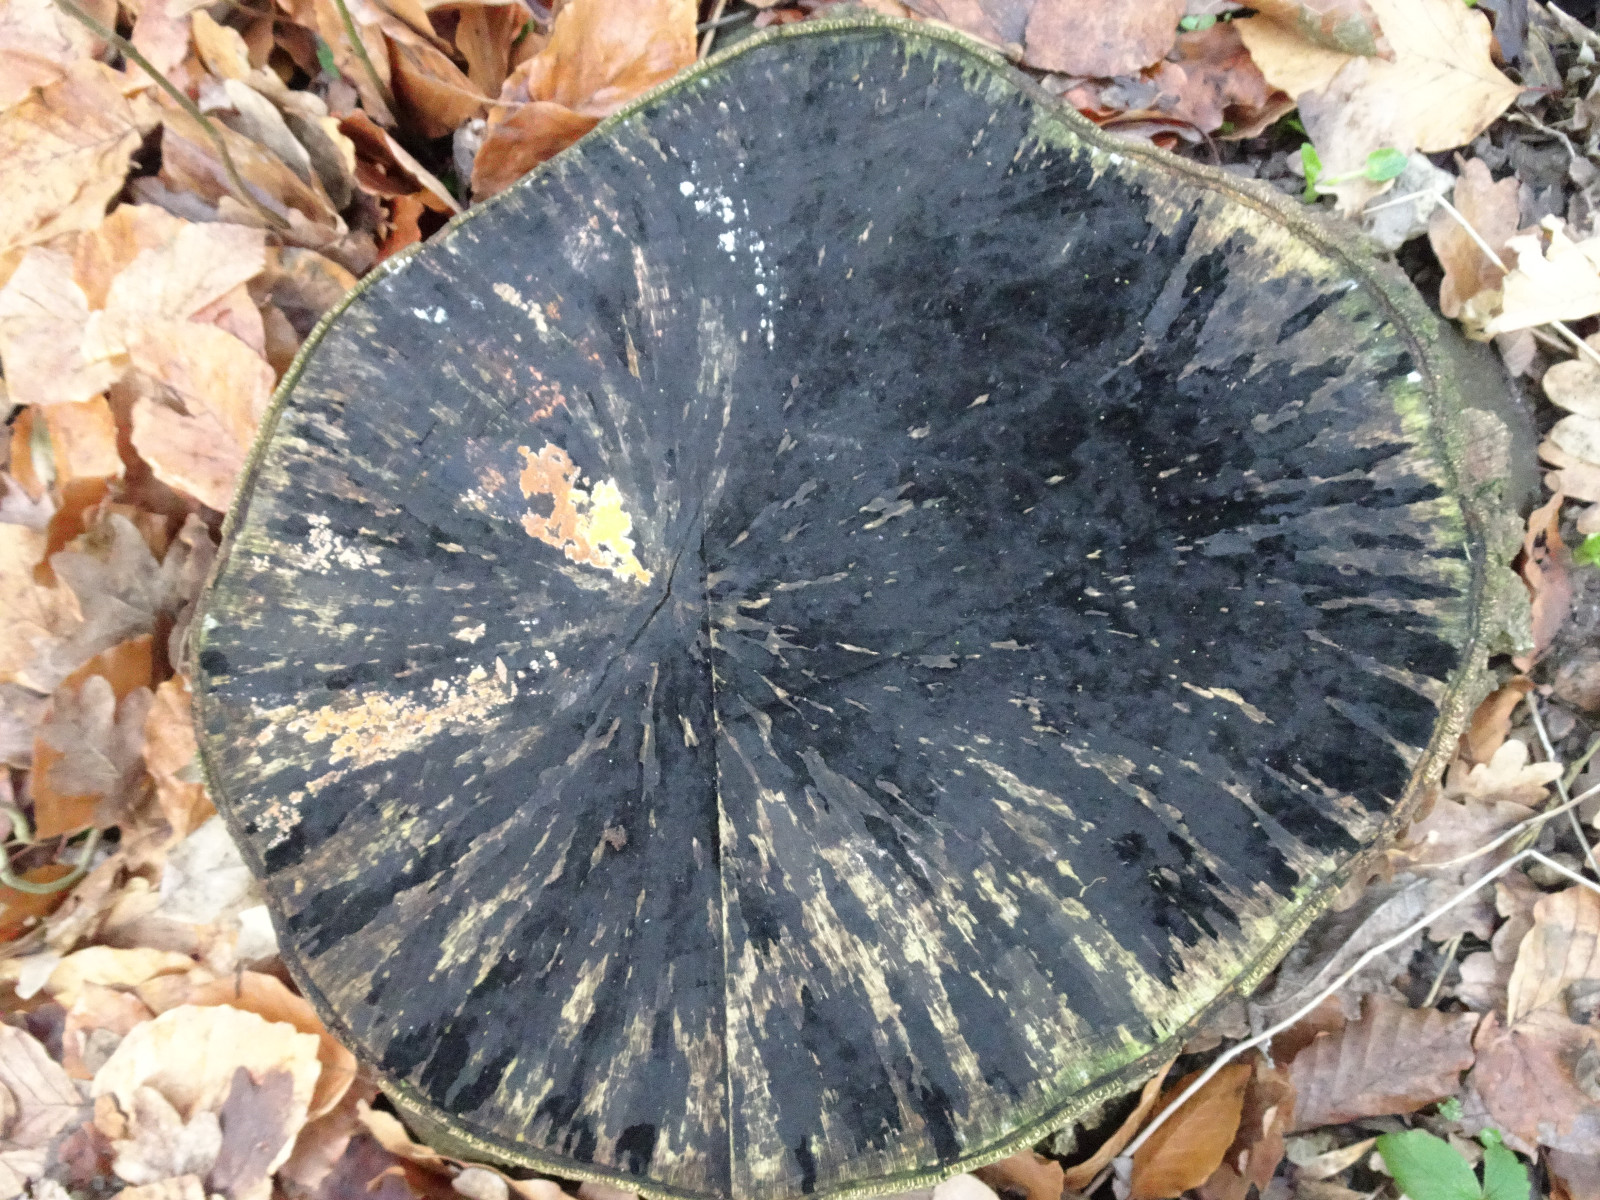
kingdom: Fungi
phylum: Ascomycota
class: Leotiomycetes
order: Helotiales
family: Helotiaceae
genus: Bispora
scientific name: Bispora pallescens
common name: måtte-snitskive
